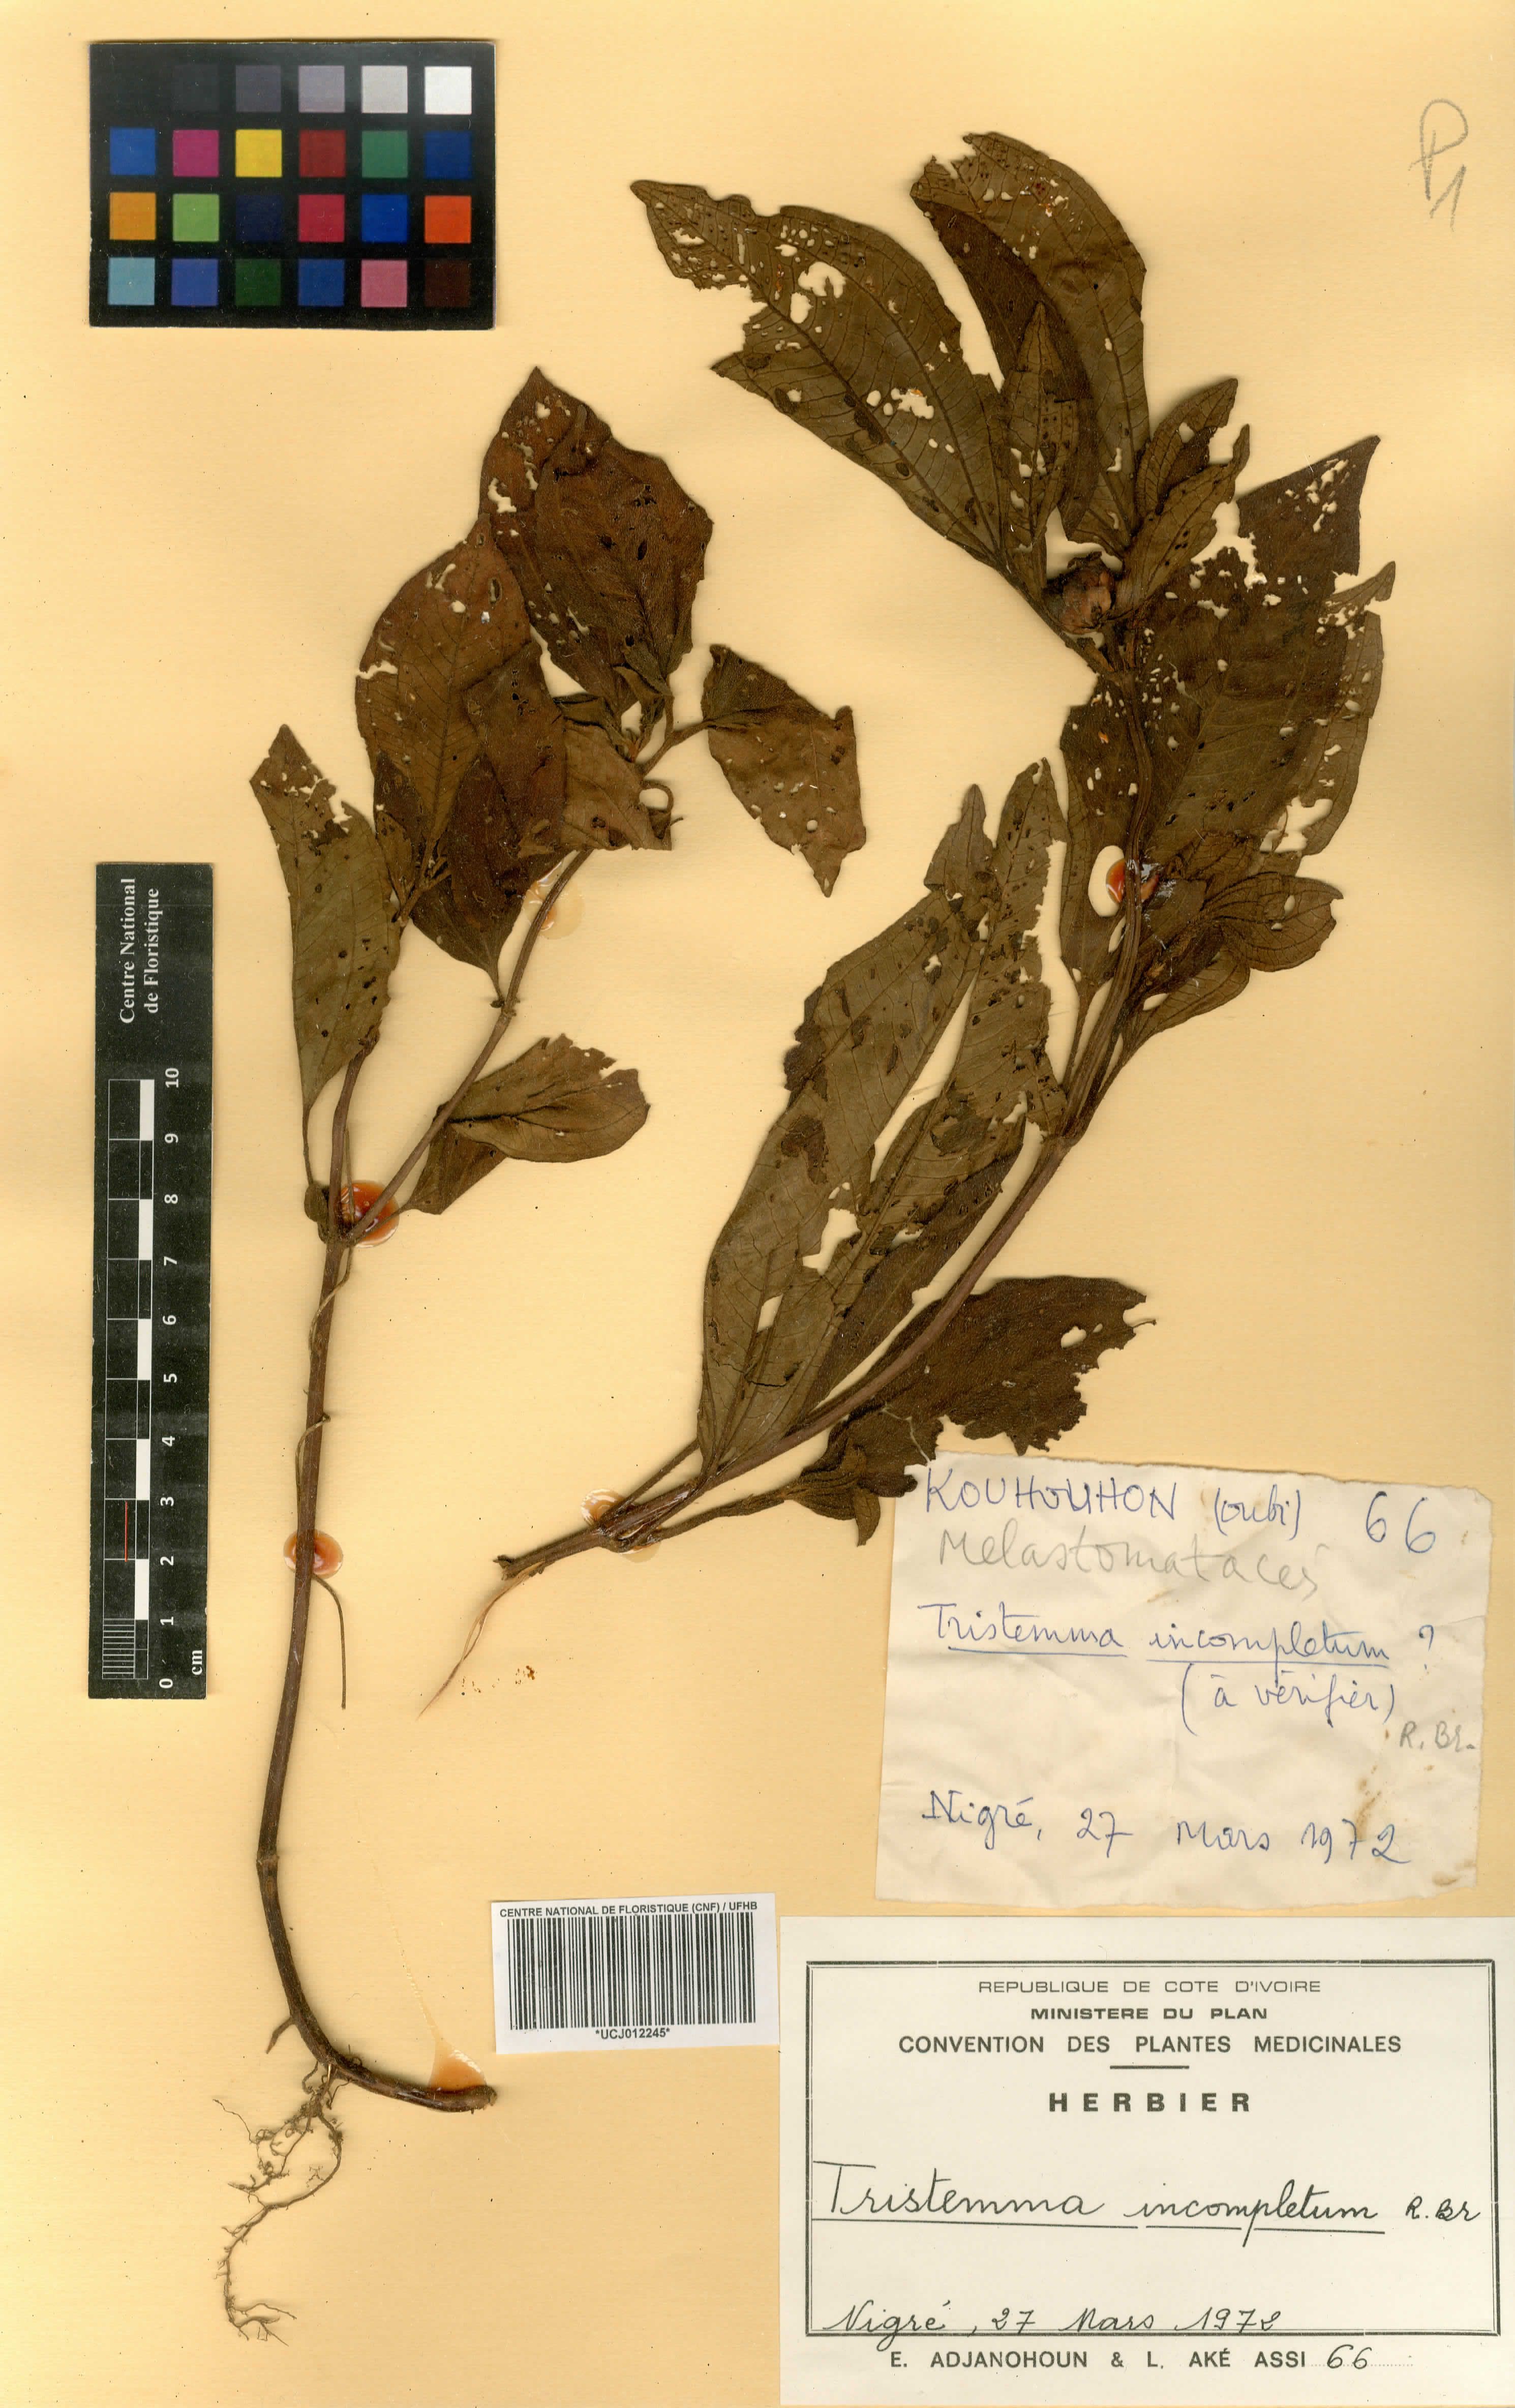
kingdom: Plantae
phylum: Tracheophyta
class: Magnoliopsida
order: Myrtales
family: Melastomataceae
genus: Tristemma
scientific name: Tristemma mauritianum
